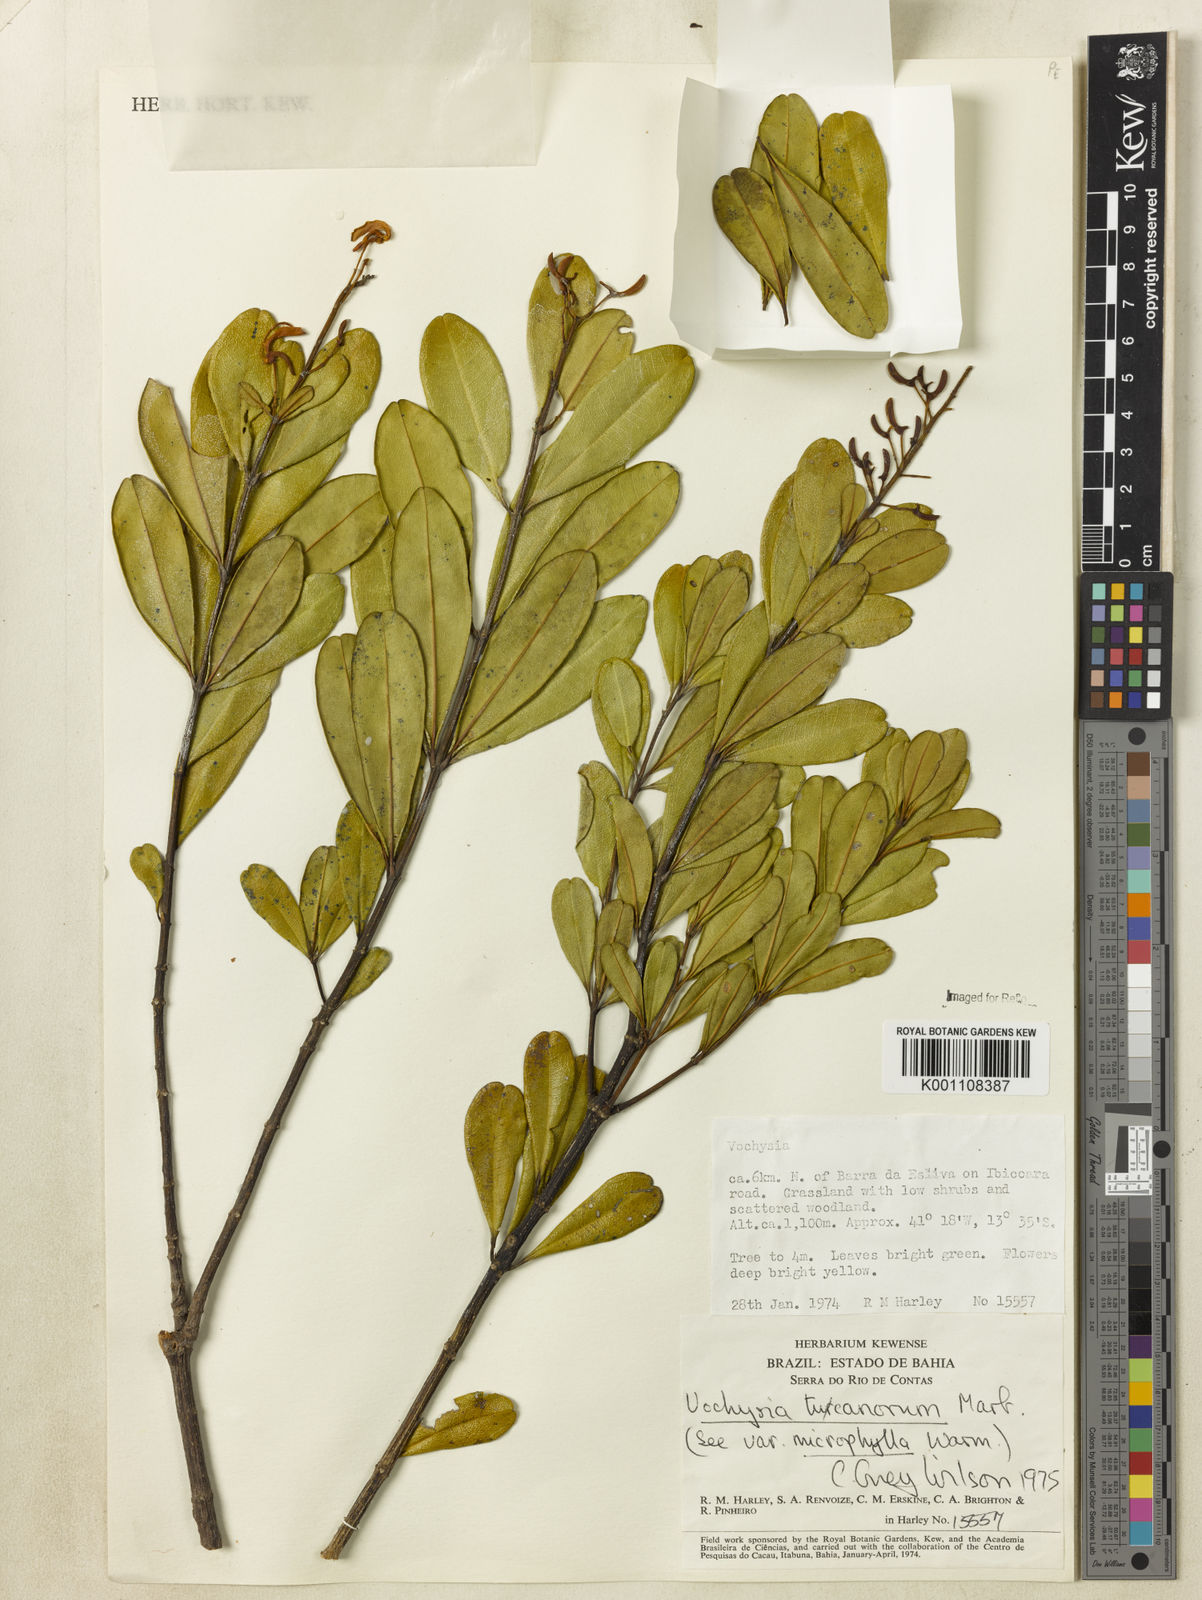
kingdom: Plantae
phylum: Tracheophyta
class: Magnoliopsida
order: Myrtales
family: Vochysiaceae
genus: Vochysia
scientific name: Vochysia tucanorum
